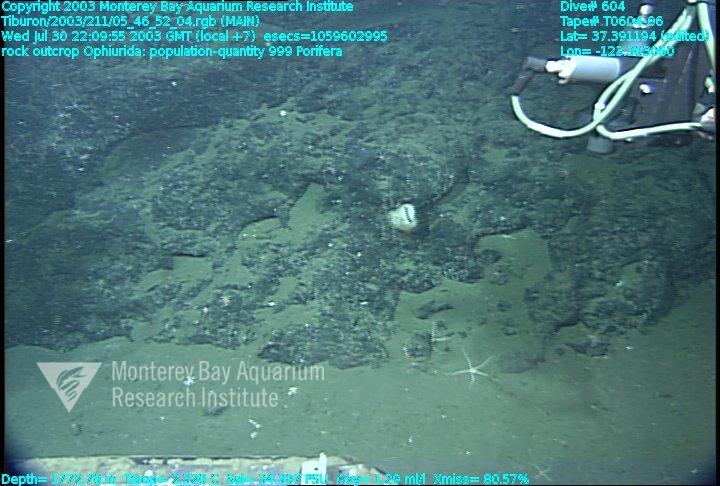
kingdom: Animalia
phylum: Porifera
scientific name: Porifera
